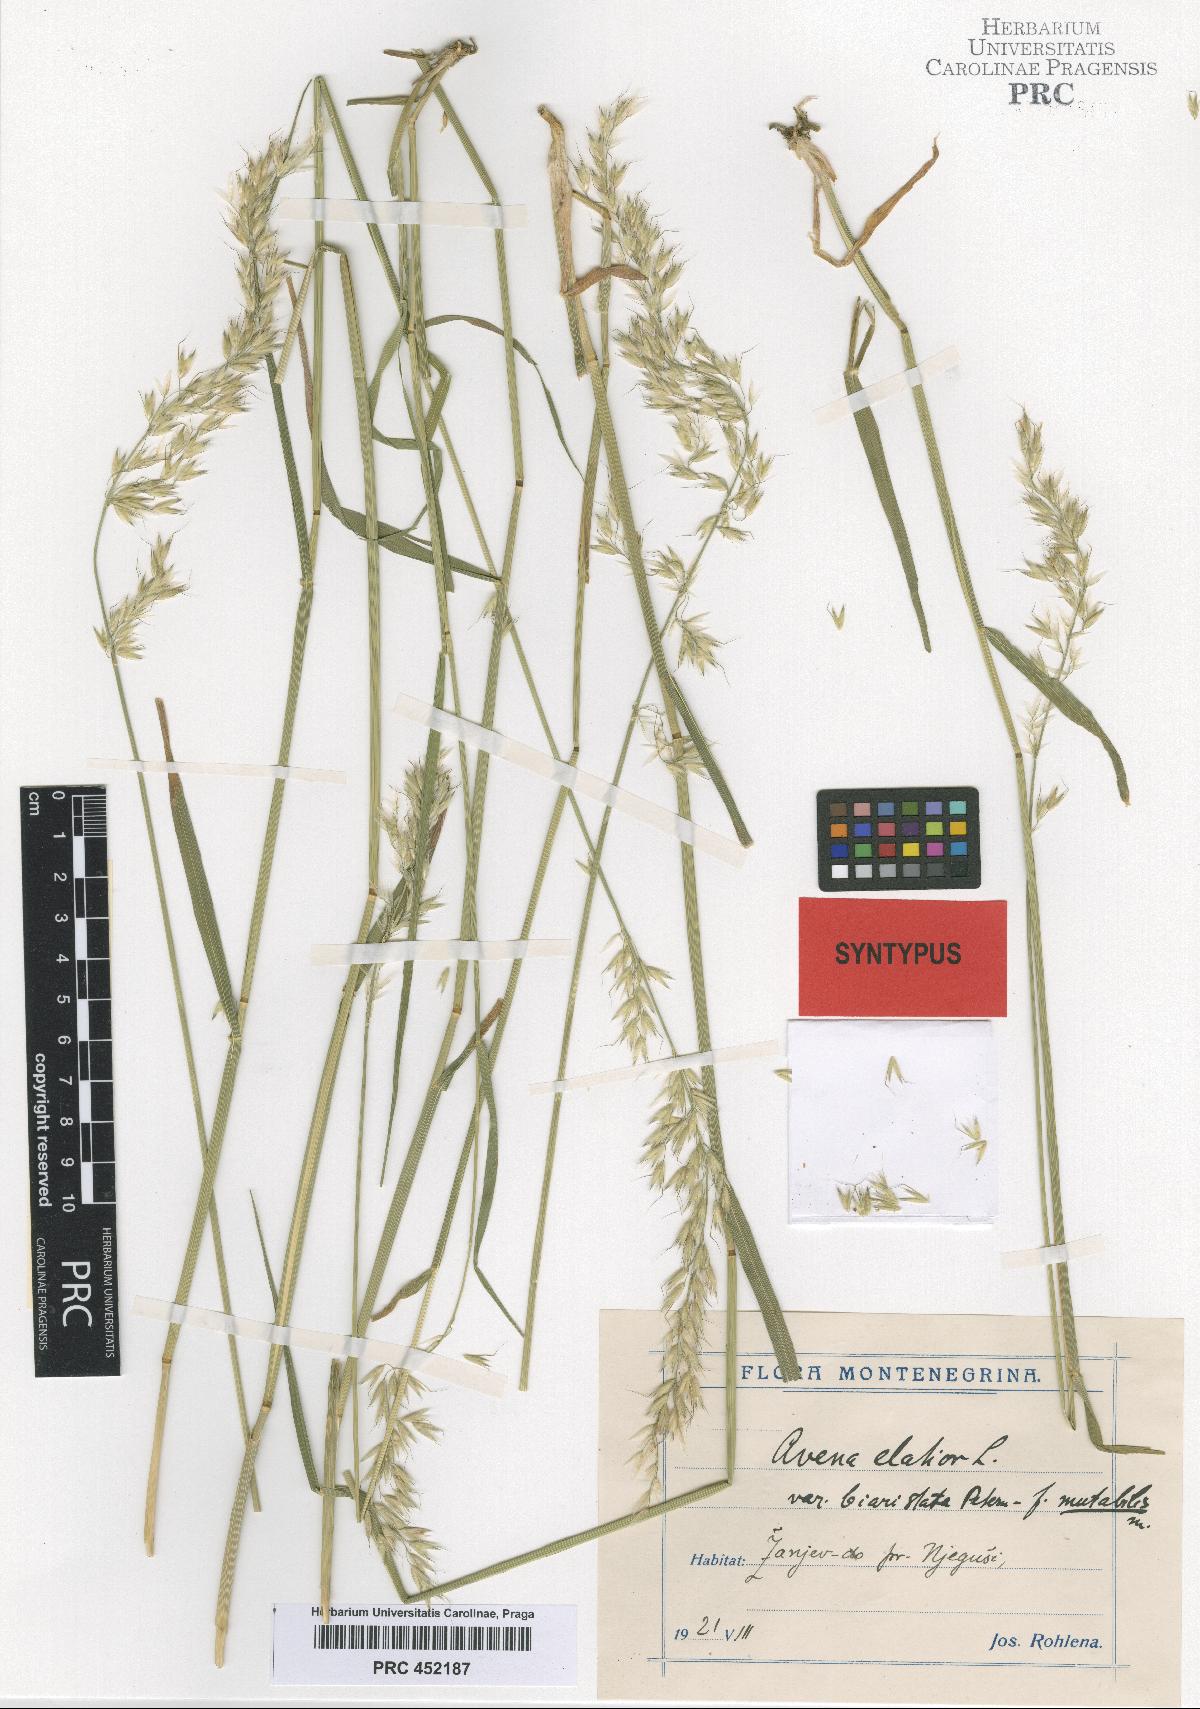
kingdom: Plantae
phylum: Tracheophyta
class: Liliopsida
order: Poales
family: Poaceae
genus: Arrhenatherum
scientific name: Arrhenatherum elatius
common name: Tall oatgrass
